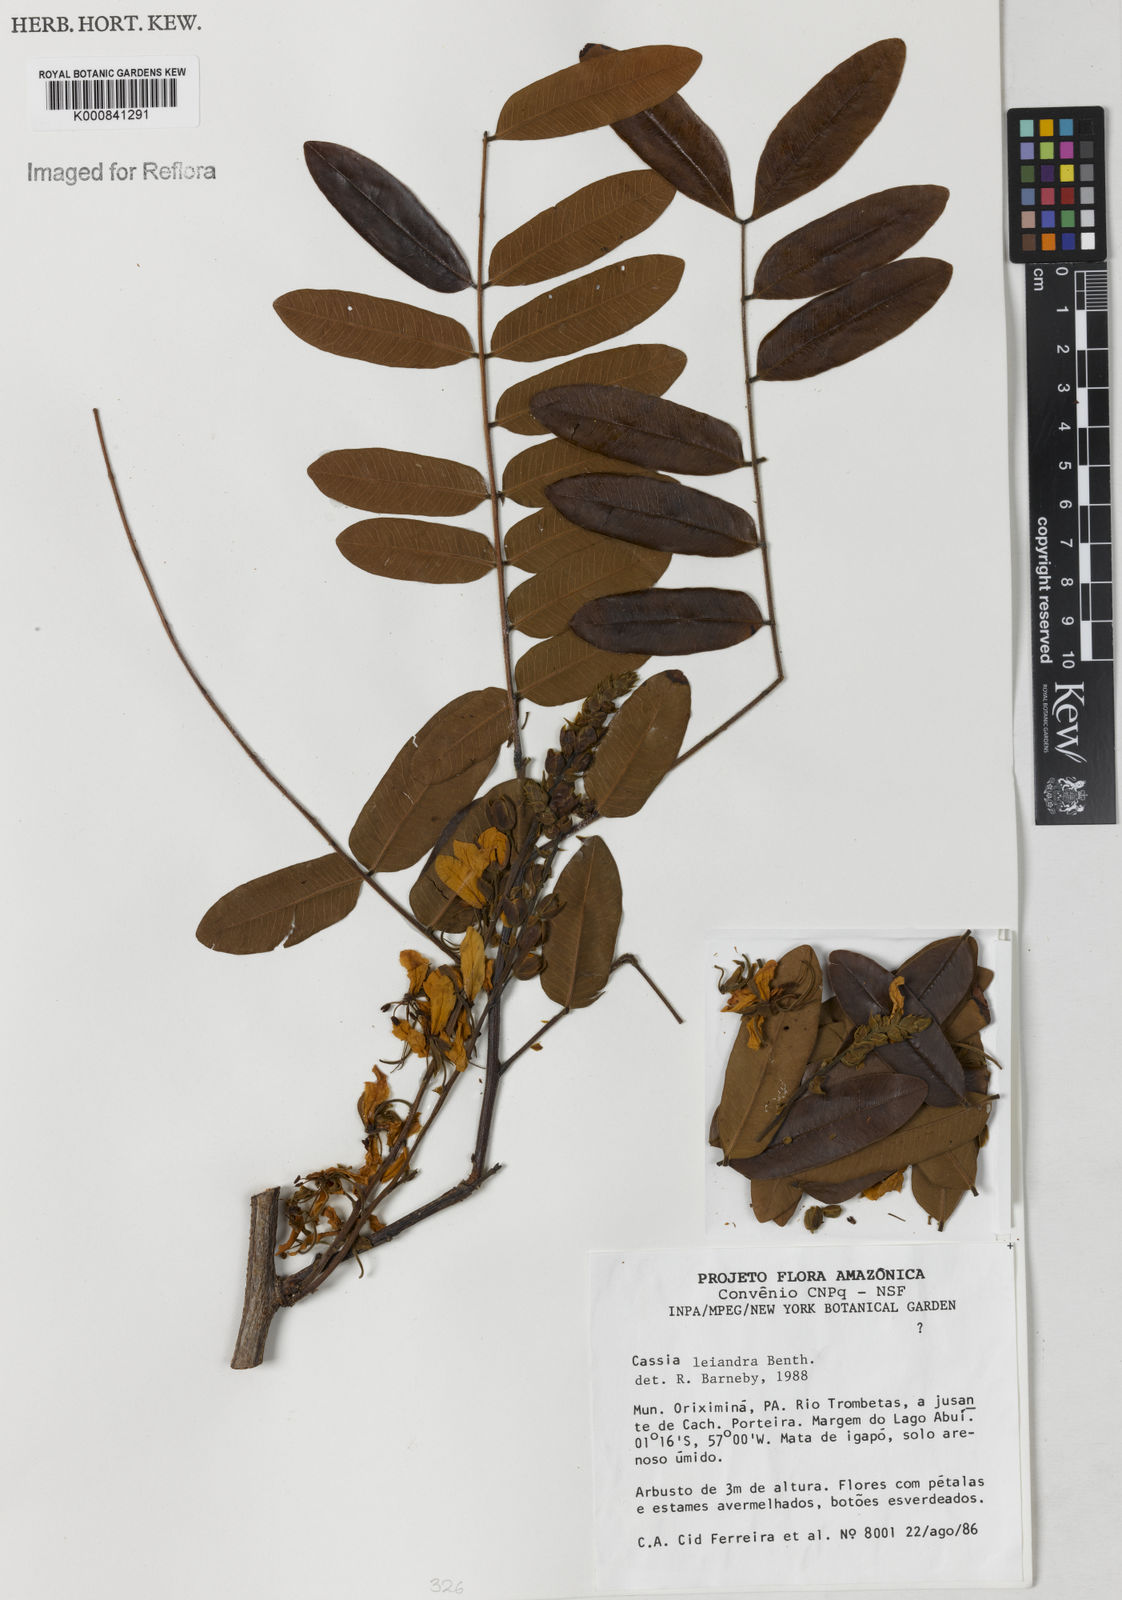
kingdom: Plantae
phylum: Tracheophyta
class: Magnoliopsida
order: Fabales
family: Fabaceae
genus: Cassia
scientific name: Cassia leiandra
